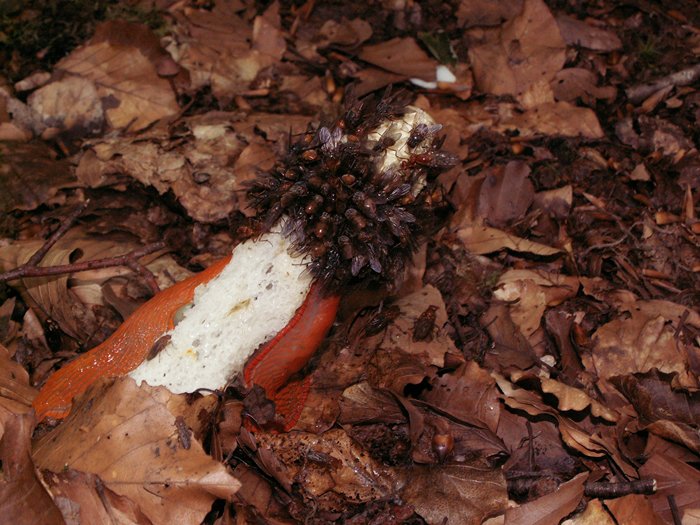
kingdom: Fungi
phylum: Basidiomycota
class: Agaricomycetes
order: Phallales
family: Phallaceae
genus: Phallus
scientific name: Phallus impudicus
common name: almindelig stinksvamp
